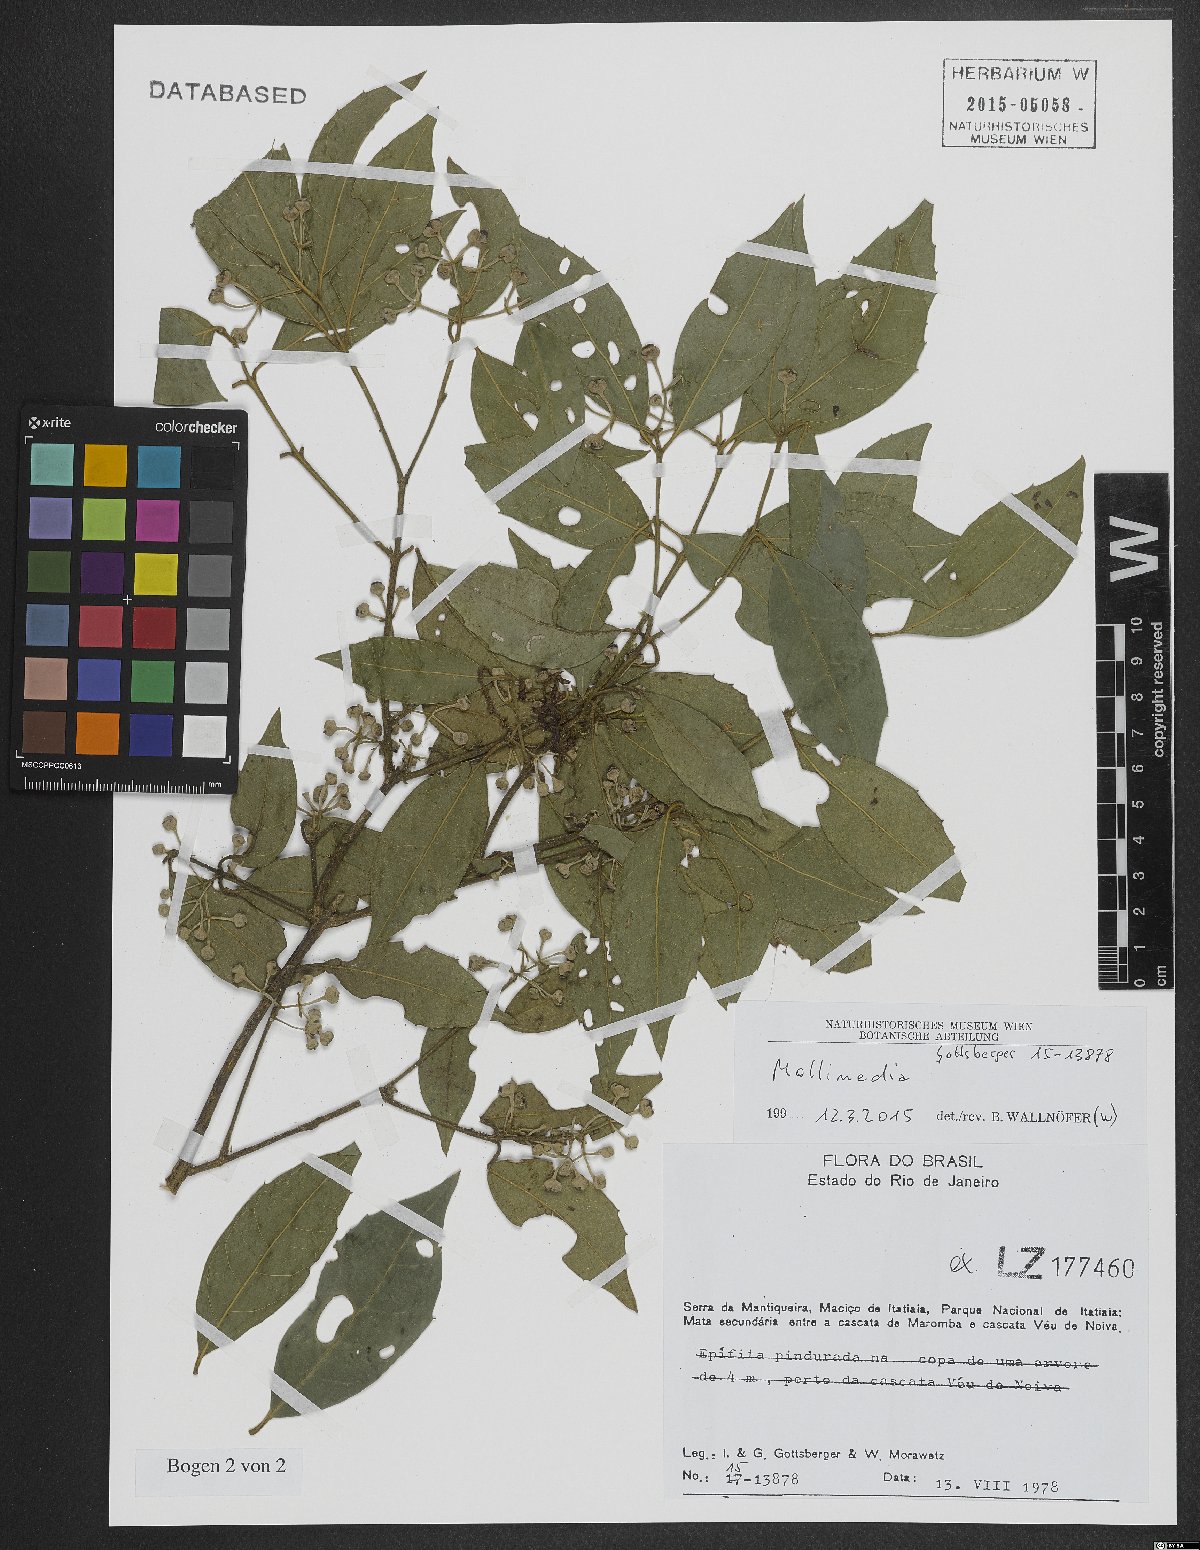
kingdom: Plantae
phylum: Tracheophyta
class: Magnoliopsida
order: Laurales
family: Monimiaceae
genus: Mollinedia
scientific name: Mollinedia
